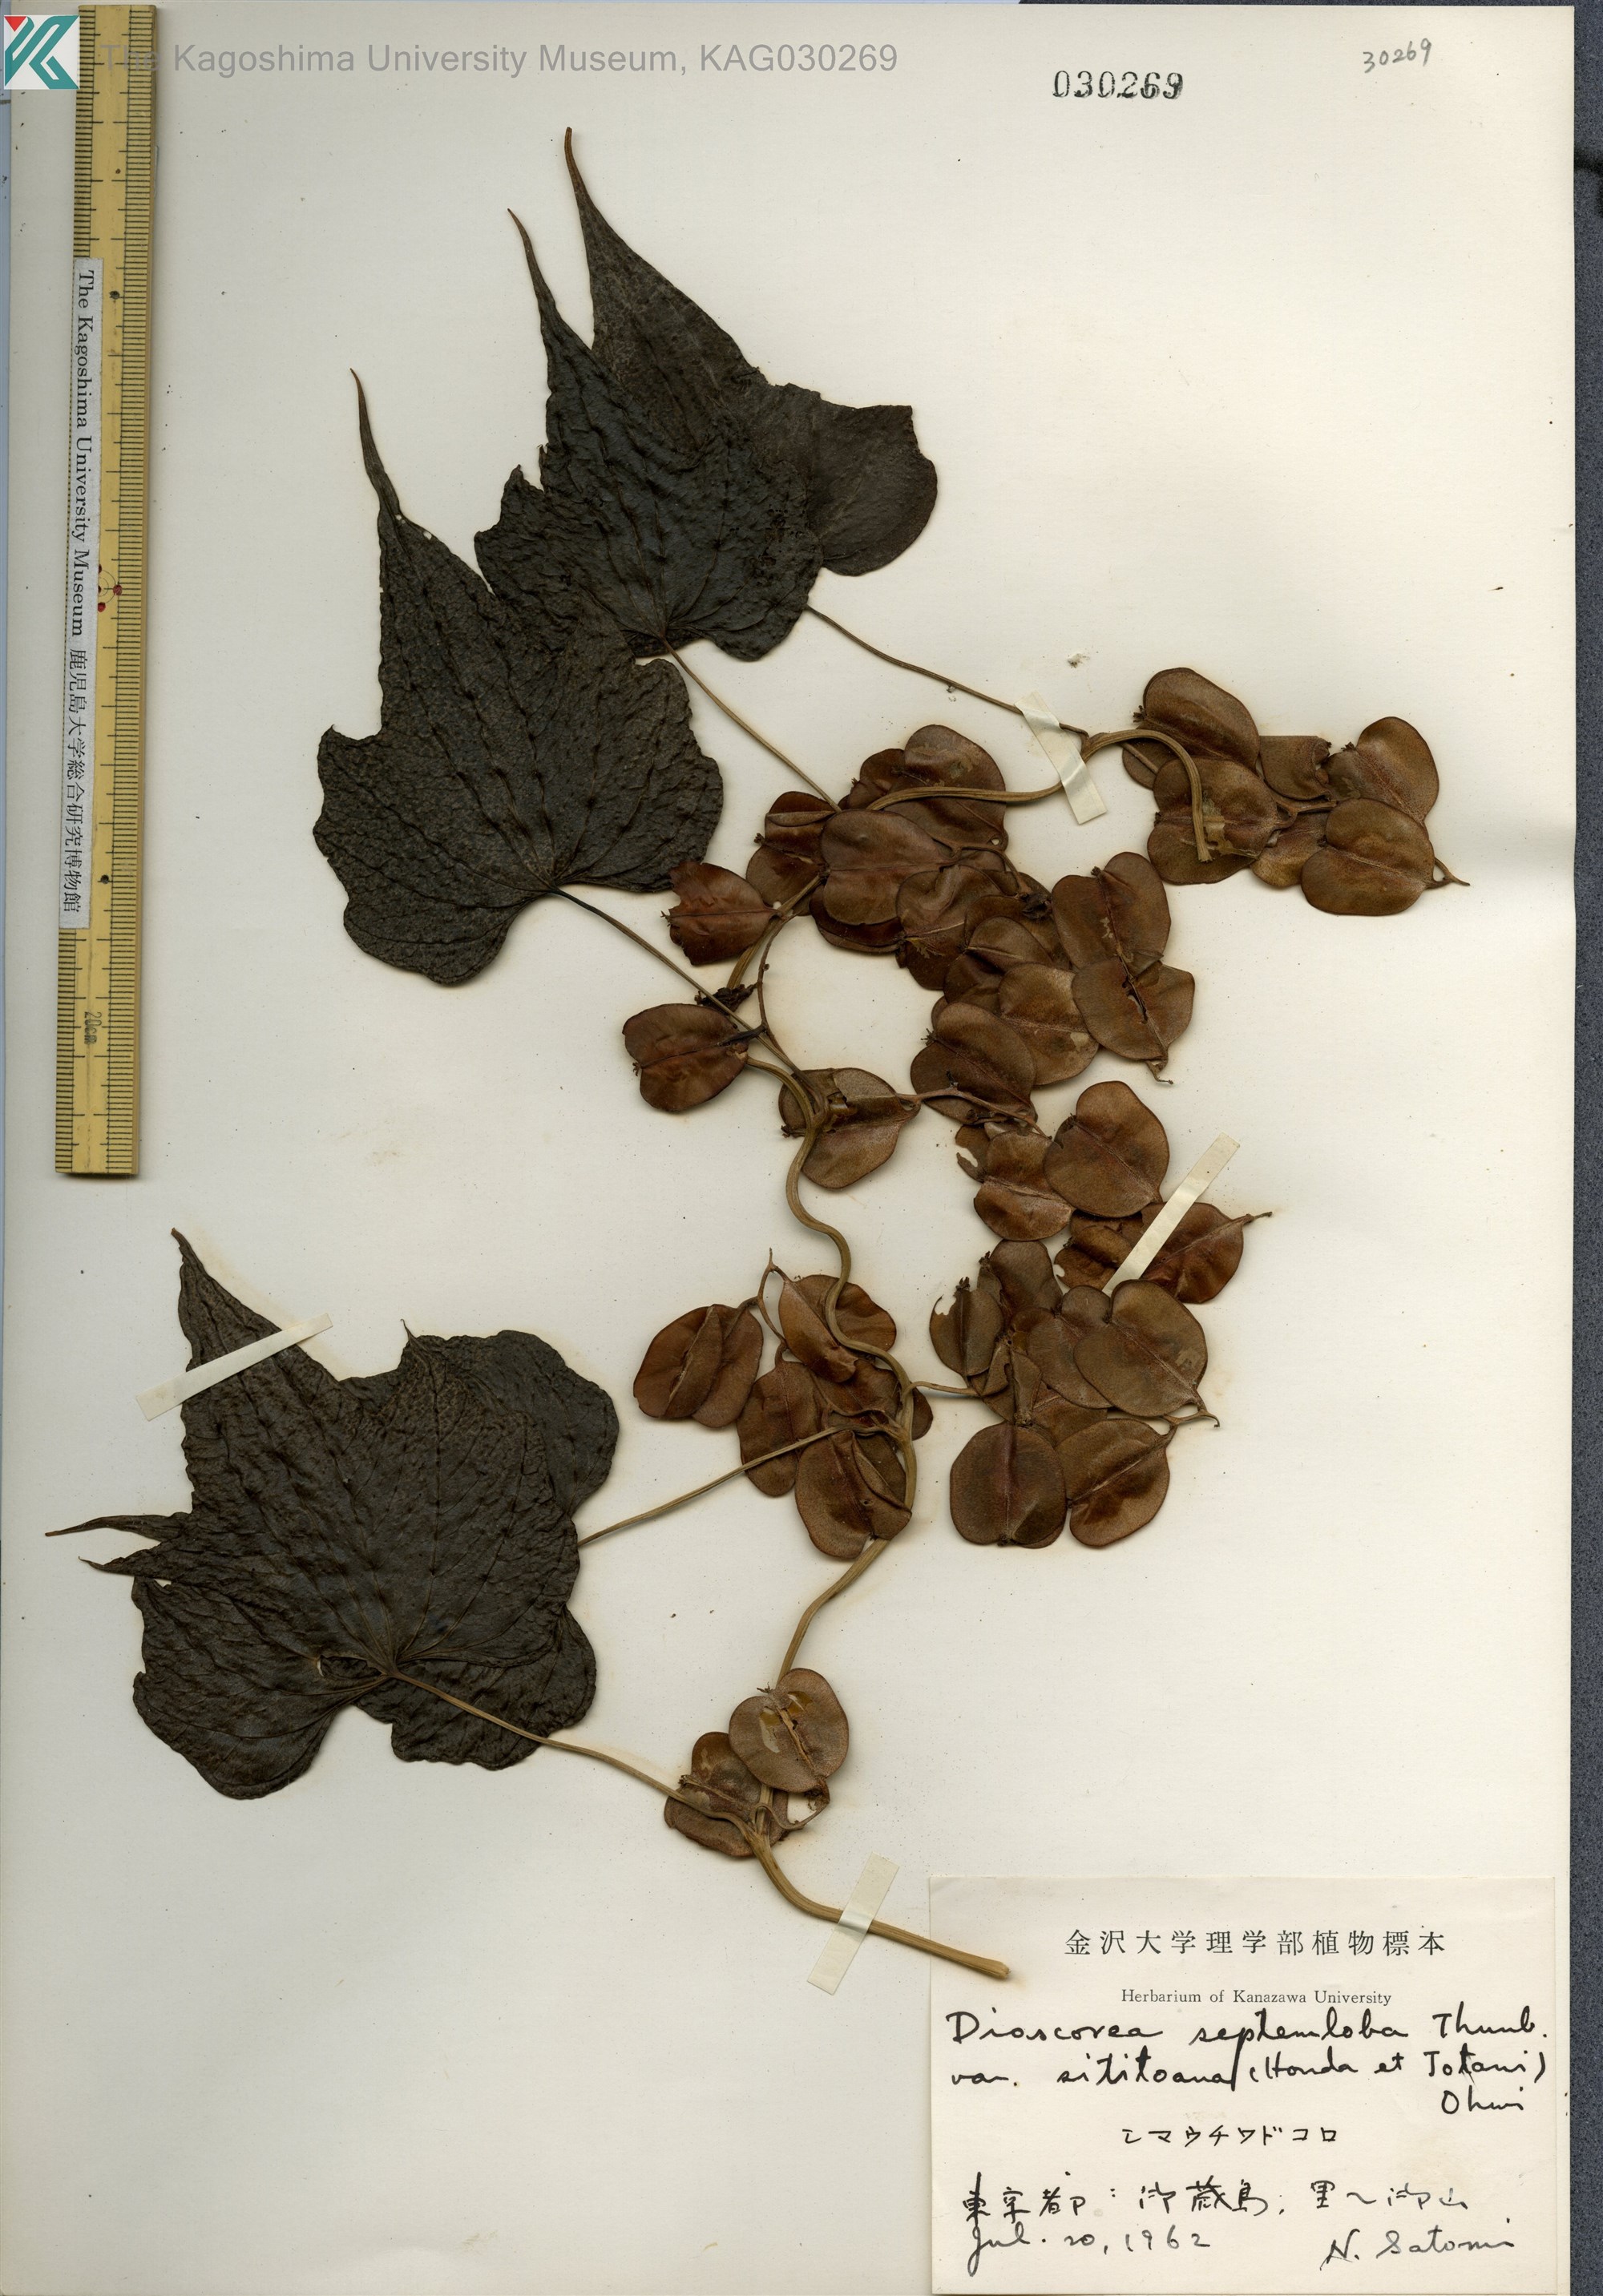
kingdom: Plantae
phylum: Tracheophyta
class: Liliopsida
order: Dioscoreales
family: Dioscoreaceae
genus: Dioscorea
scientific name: Dioscorea septemloba
